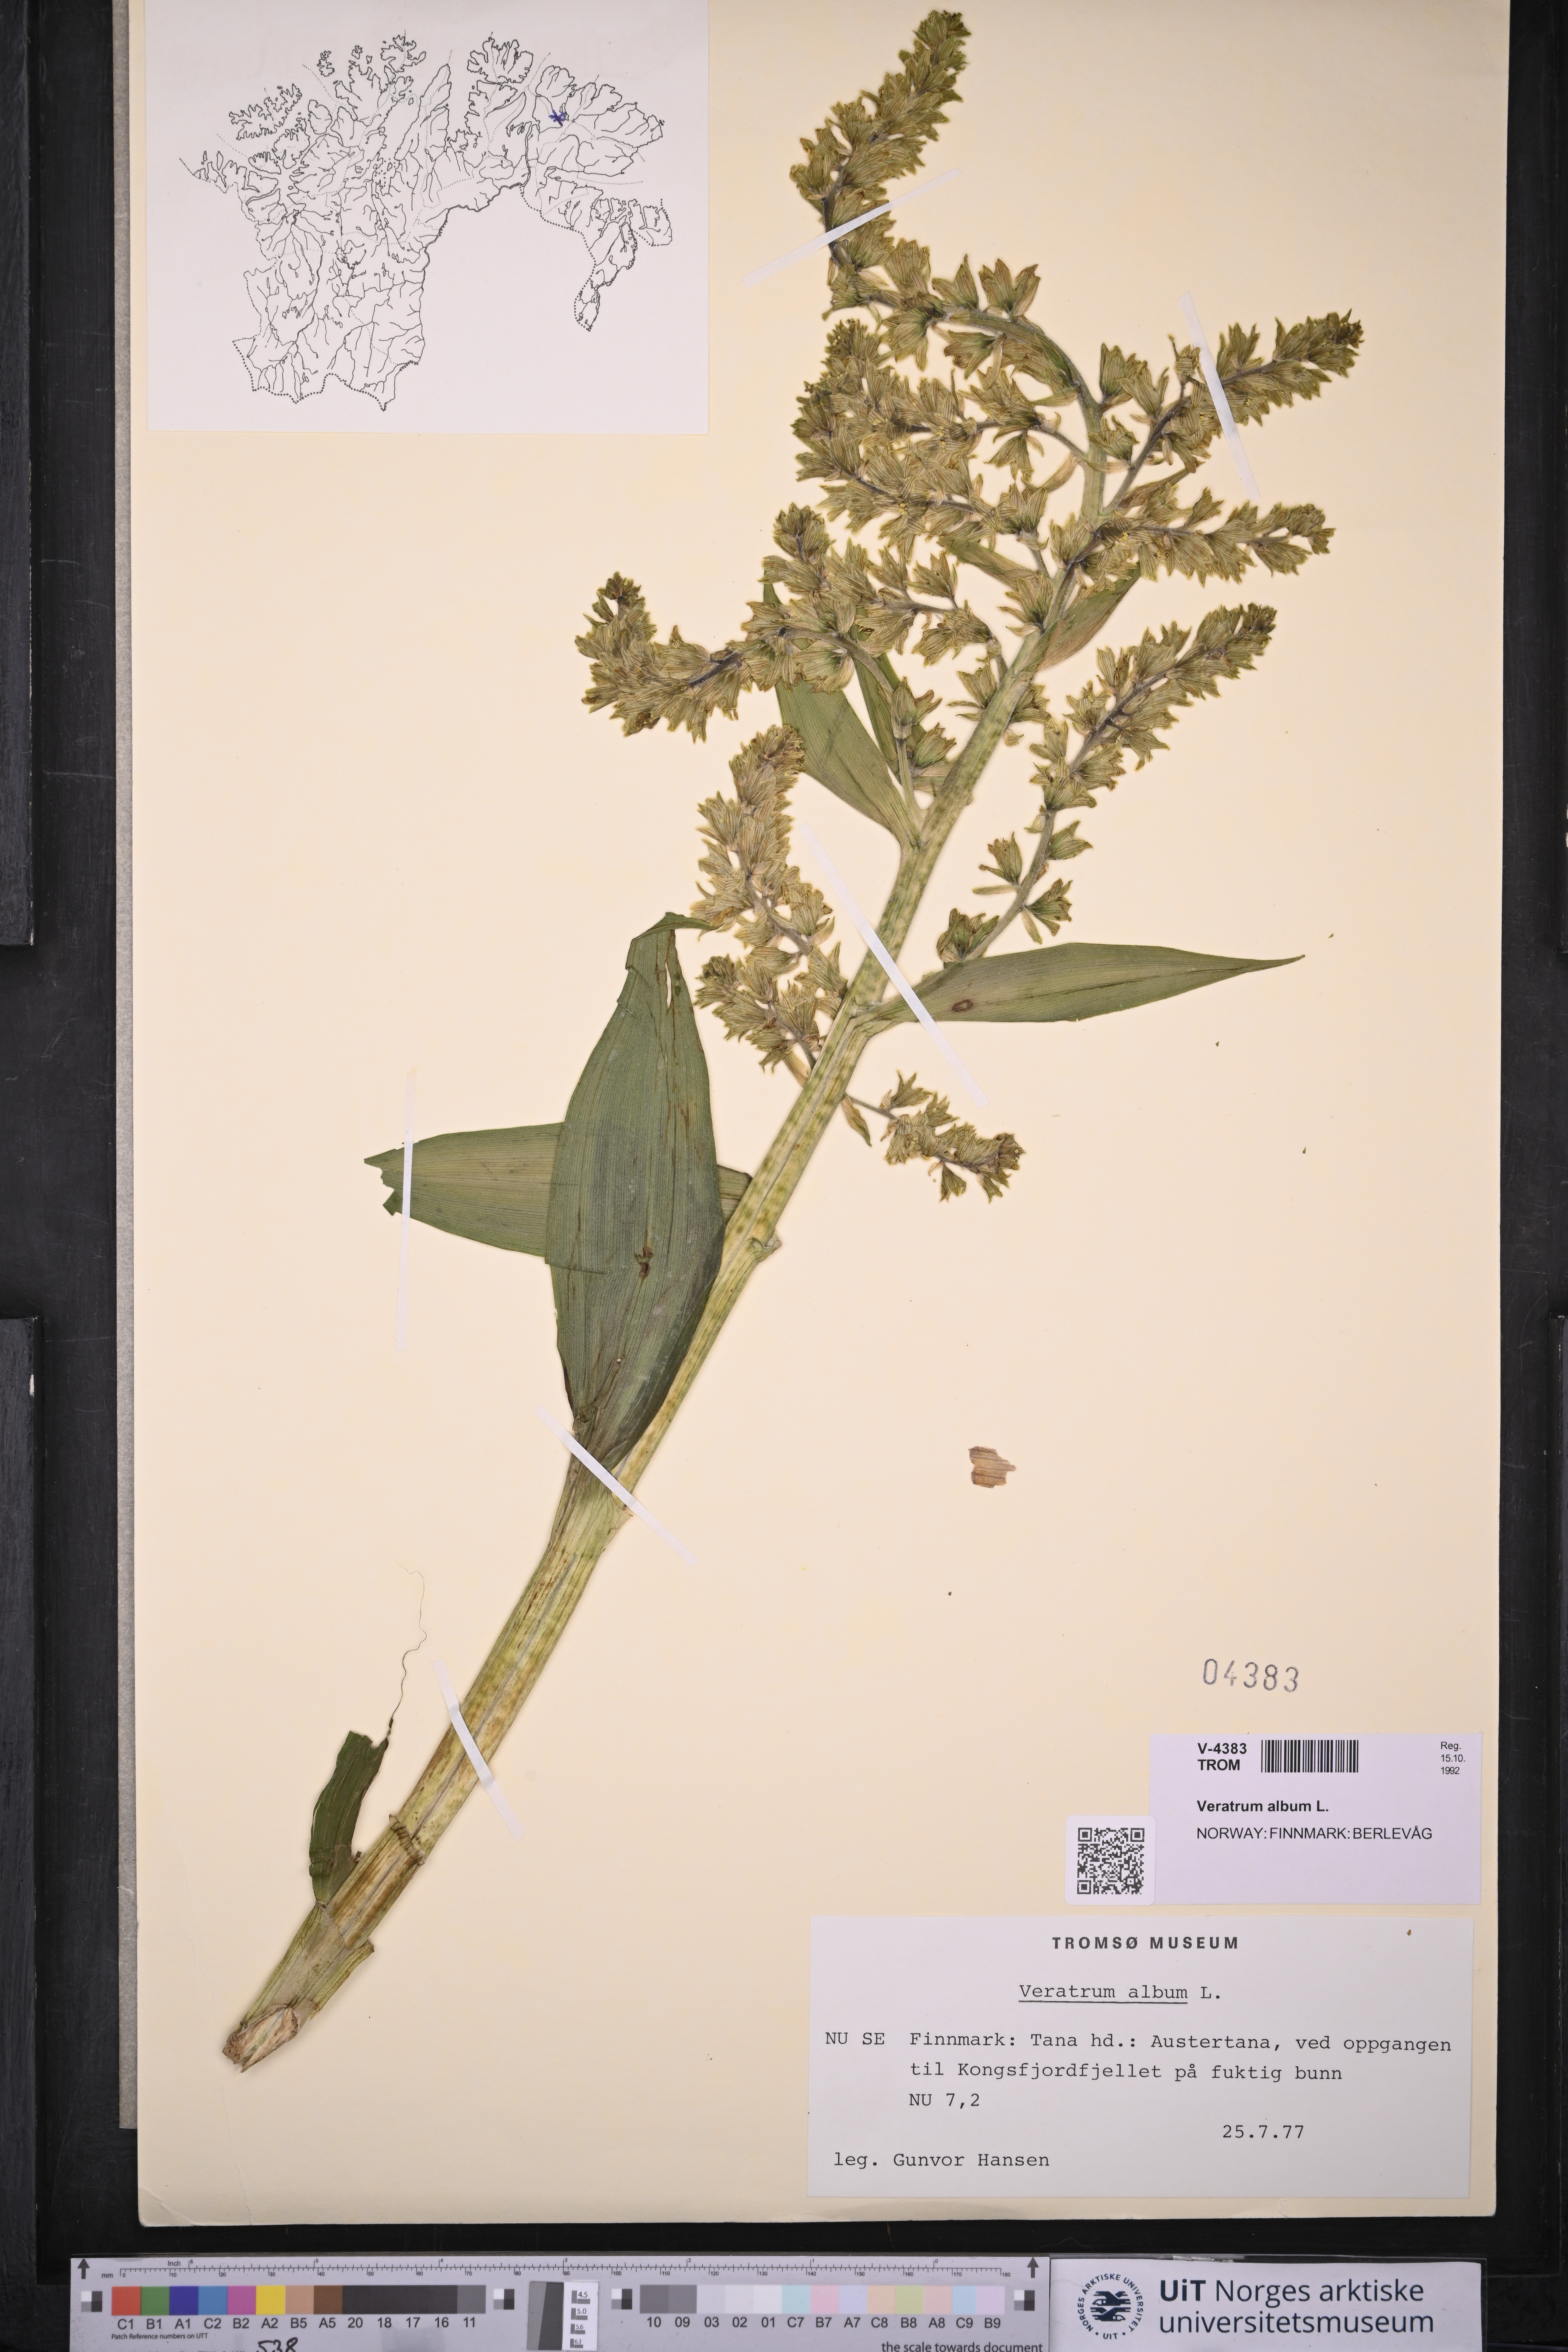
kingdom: Plantae
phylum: Tracheophyta
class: Liliopsida
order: Liliales
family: Melanthiaceae
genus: Veratrum
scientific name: Veratrum album
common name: White veratrum
